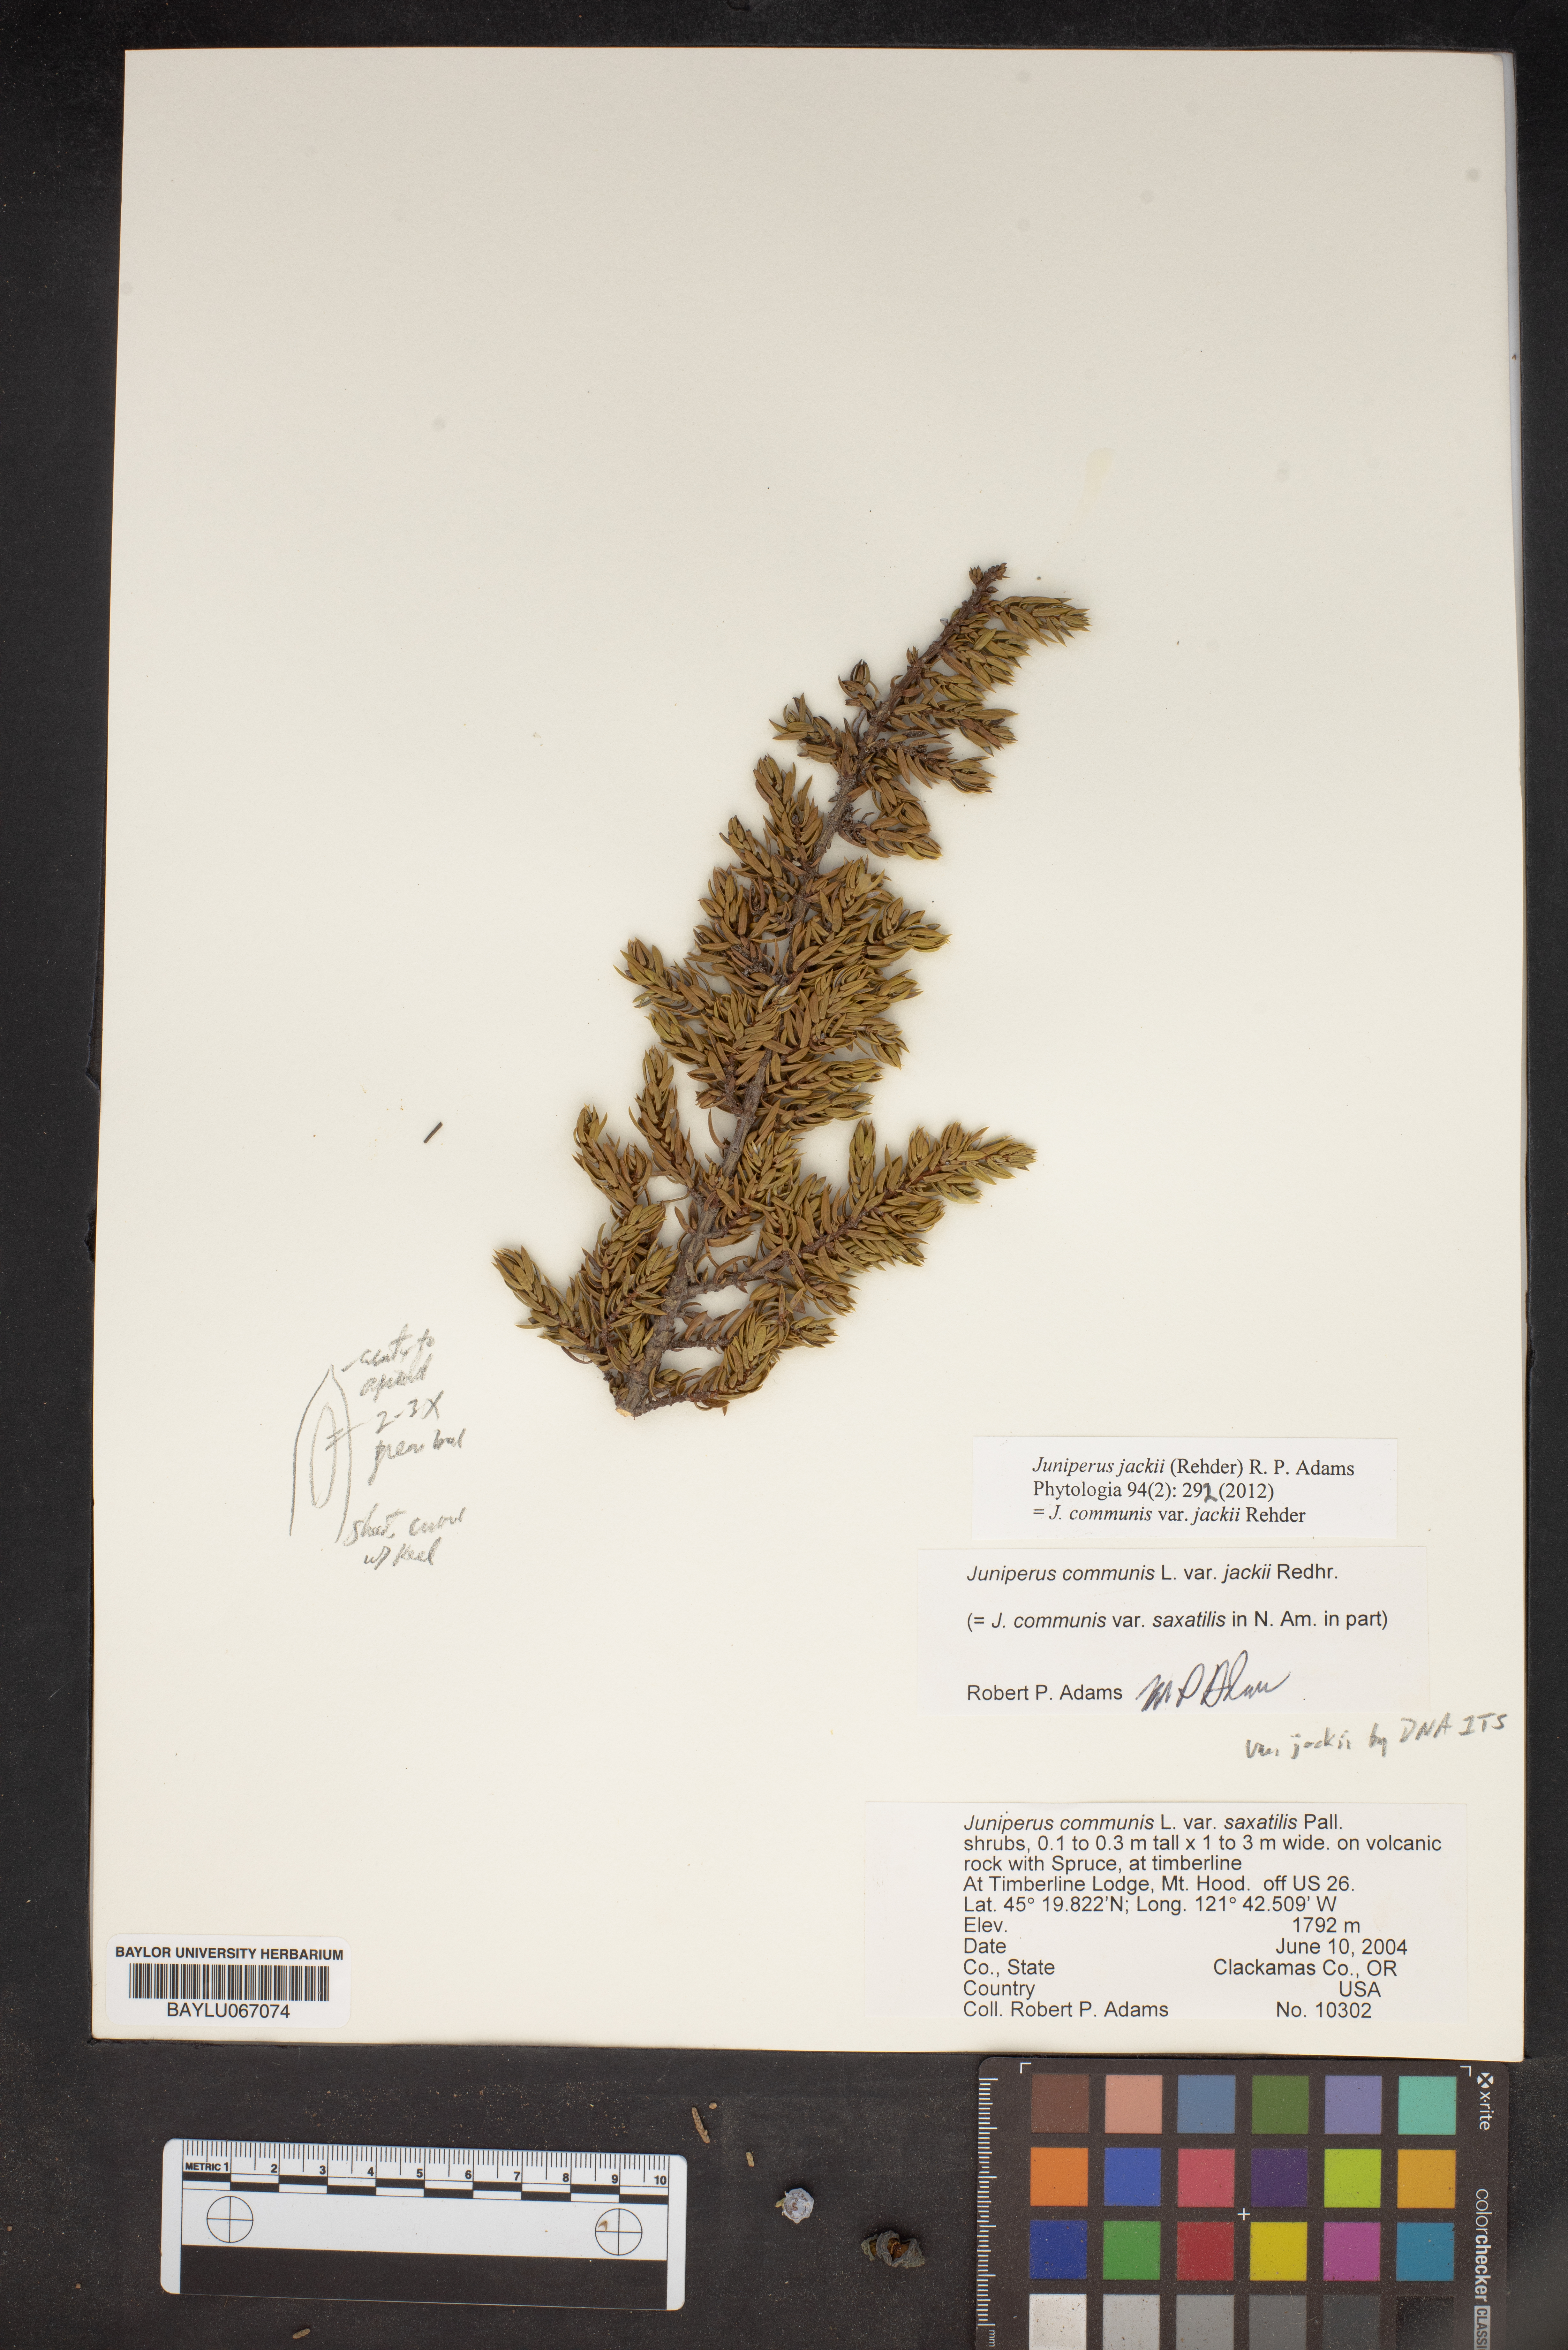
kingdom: Plantae
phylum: Tracheophyta
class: Pinopsida
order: Pinales
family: Cupressaceae
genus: Juniperus
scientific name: Juniperus communis
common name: Common juniper
